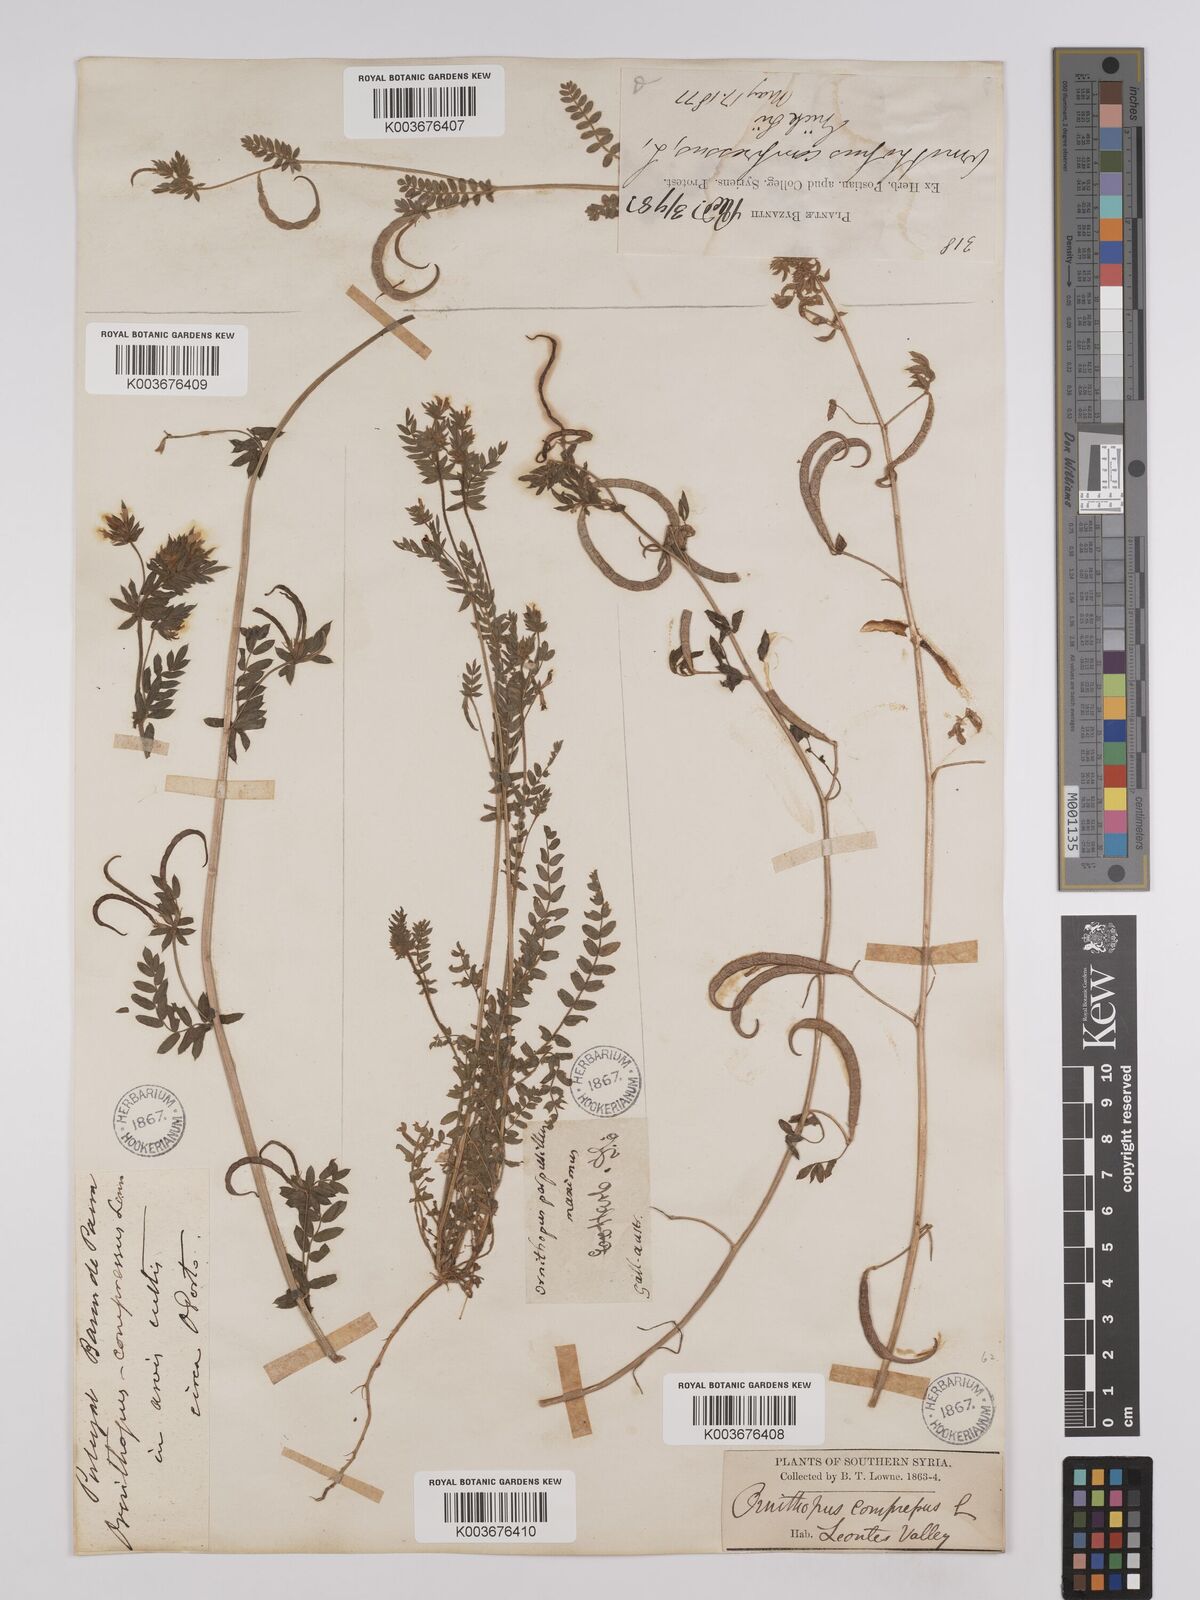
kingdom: Plantae
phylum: Tracheophyta
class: Magnoliopsida
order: Fabales
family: Fabaceae
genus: Ornithopus
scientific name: Ornithopus compressus
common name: Yellow serradella
